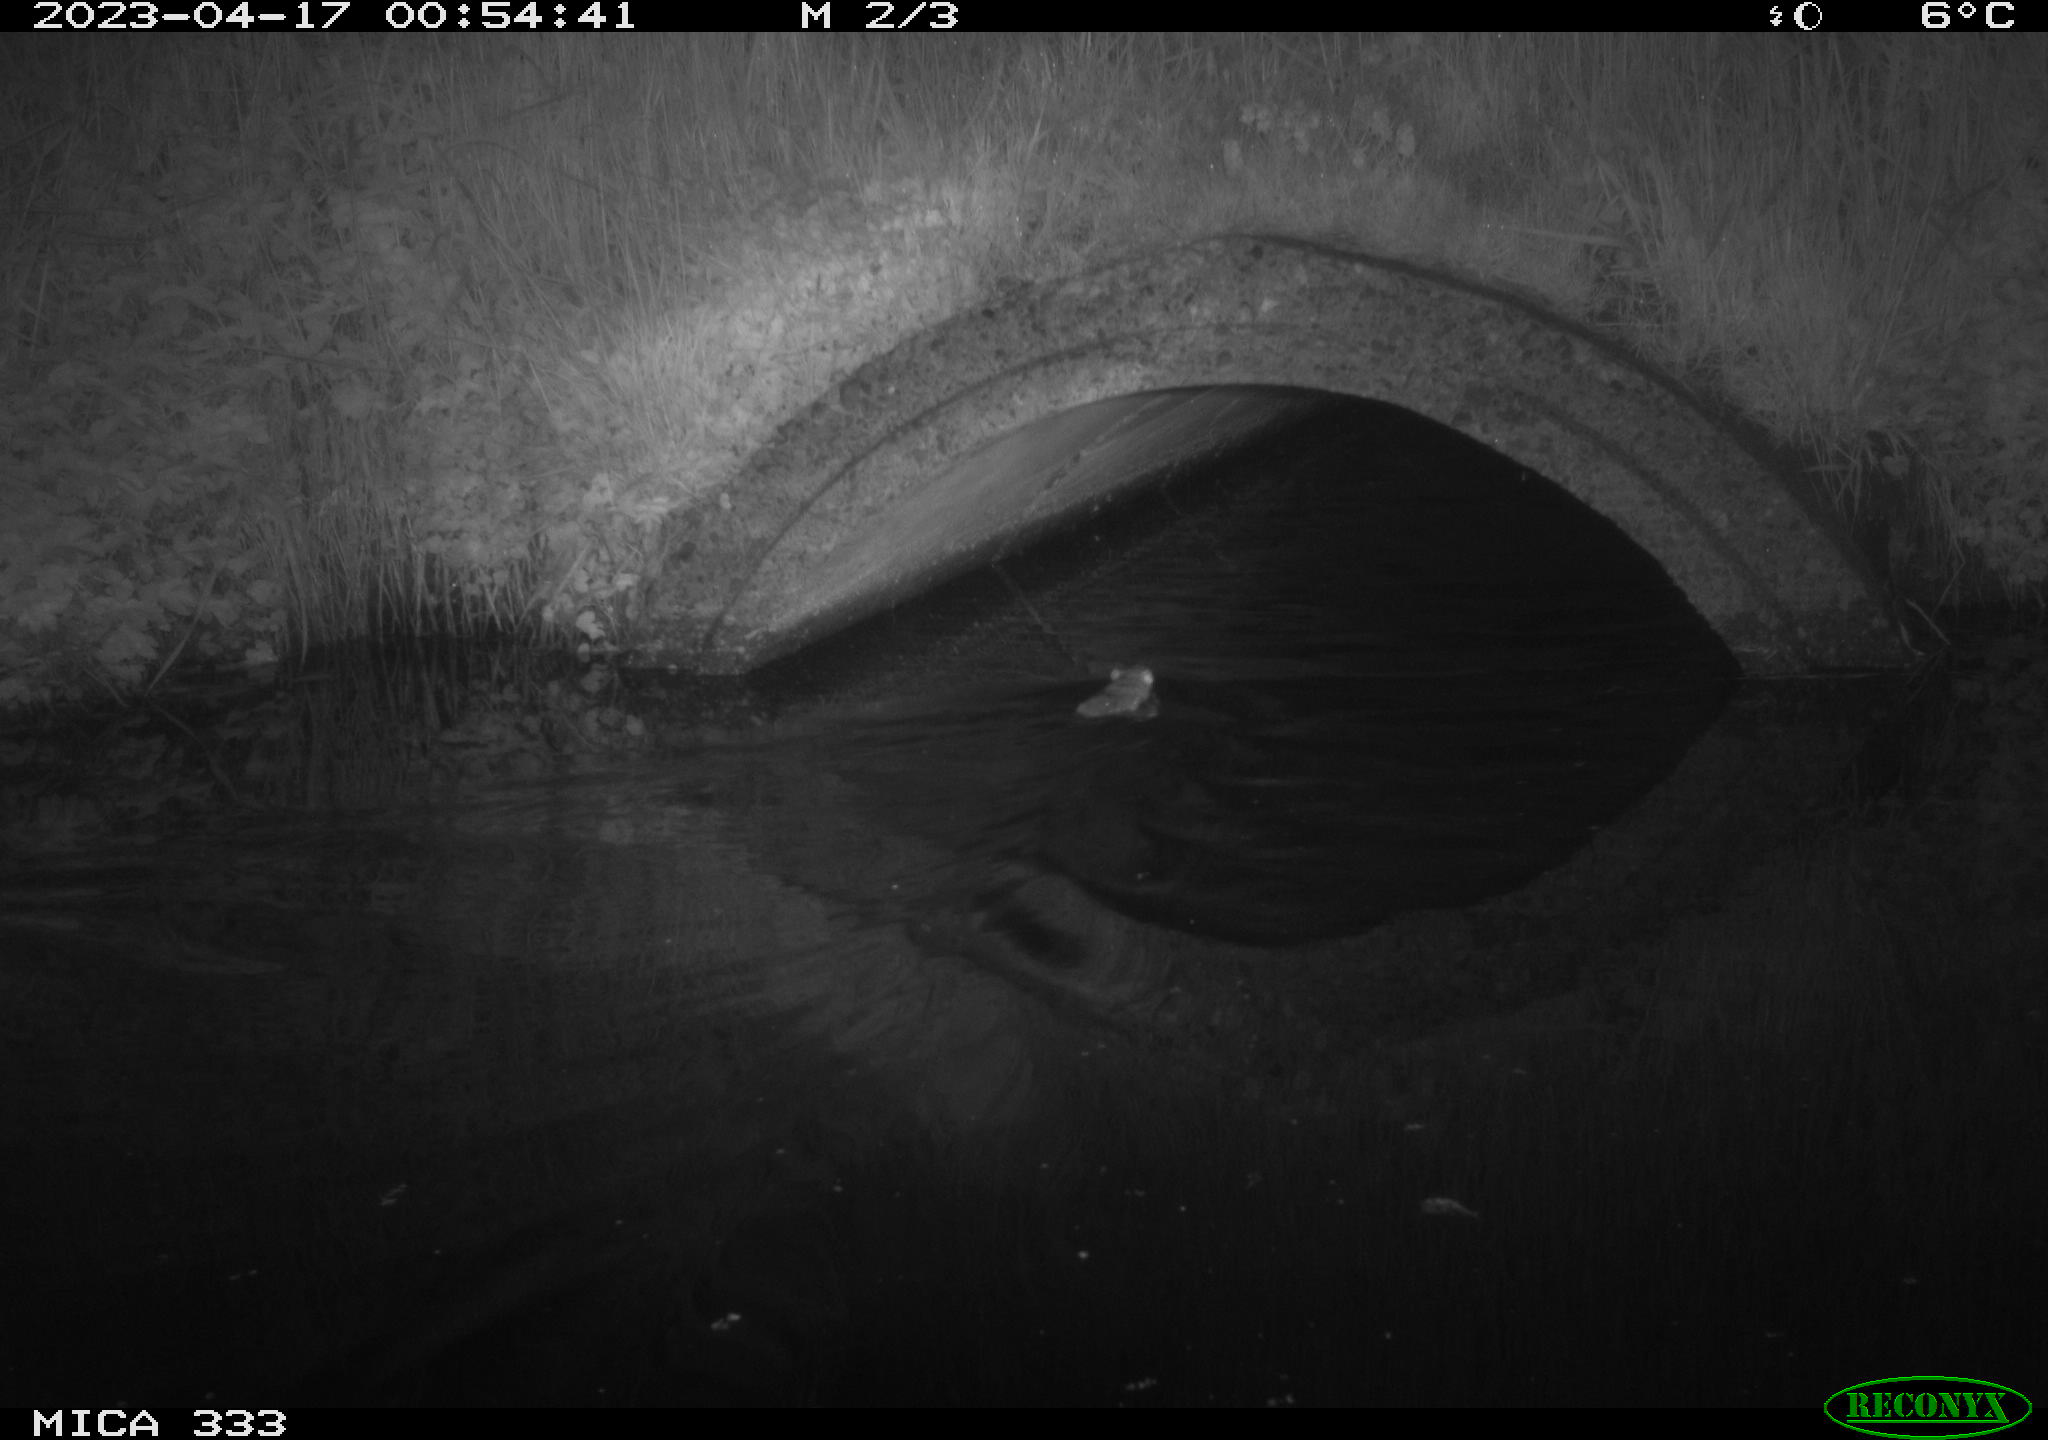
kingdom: Animalia
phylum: Chordata
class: Mammalia
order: Rodentia
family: Muridae
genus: Rattus
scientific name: Rattus norvegicus
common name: Brown rat
